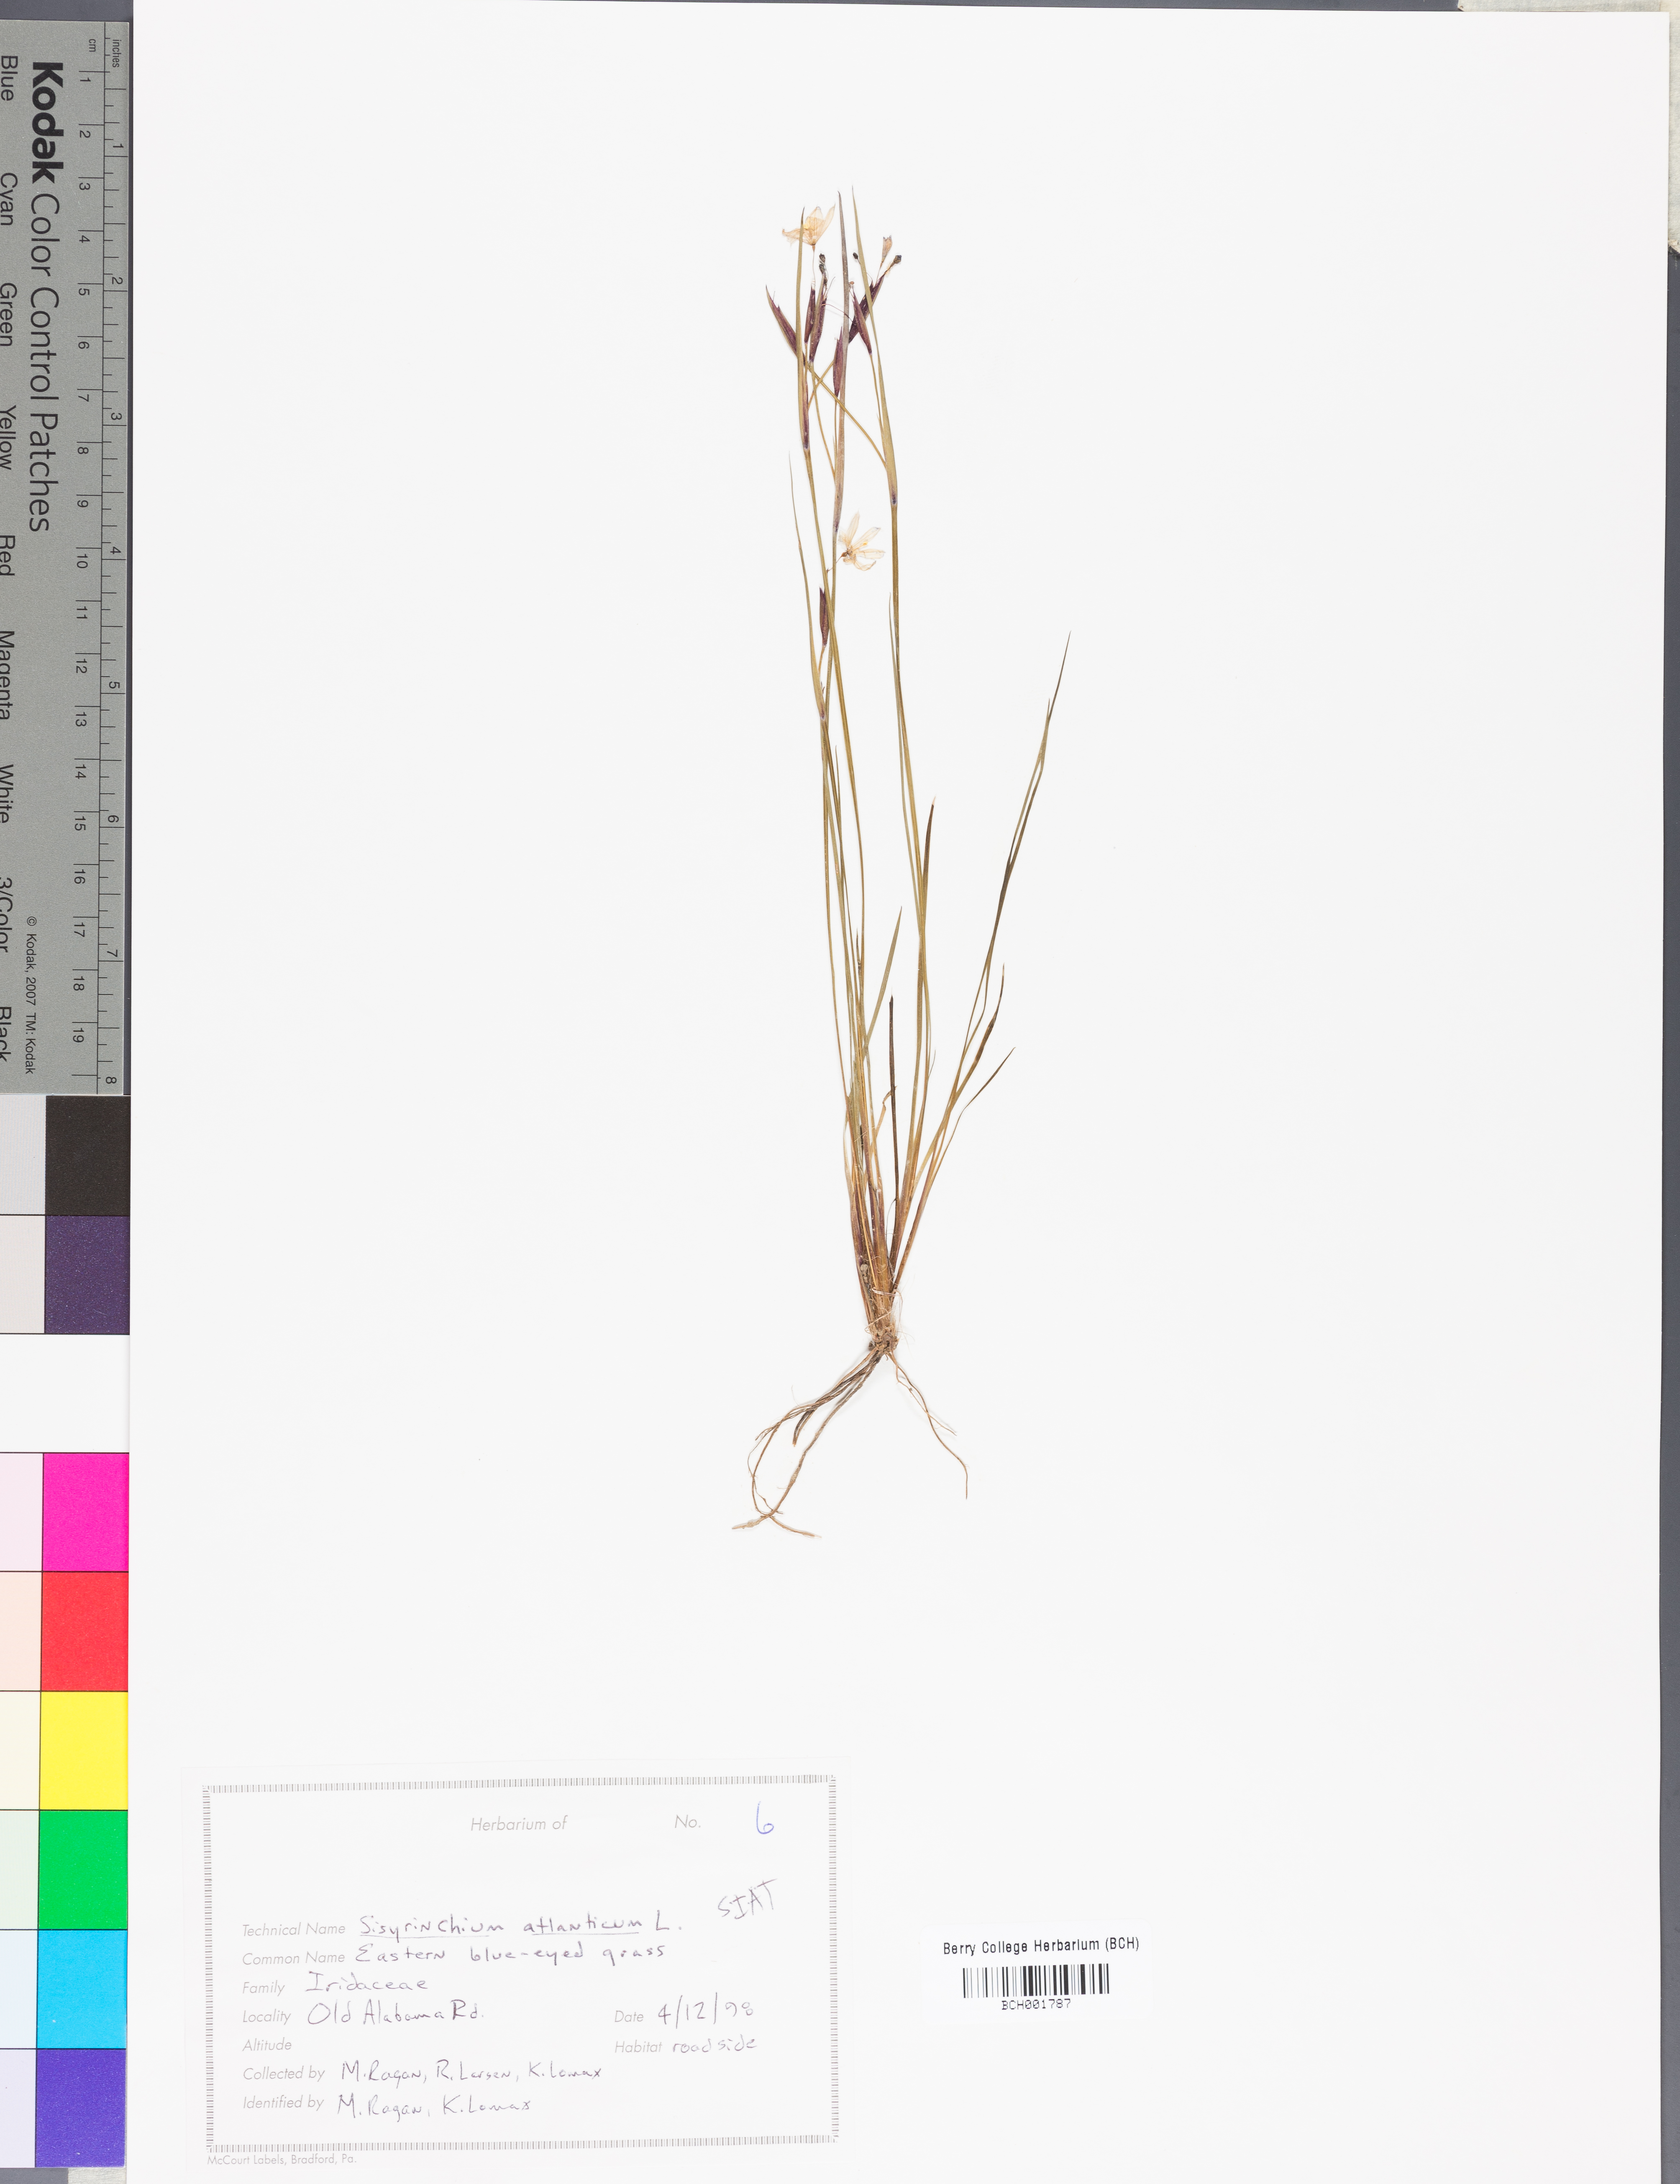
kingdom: Plantae
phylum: Tracheophyta
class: Liliopsida
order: Asparagales
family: Iridaceae
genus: Sisyrinchium
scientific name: Sisyrinchium atlanticum
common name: Eastern blue-eyed-grass
